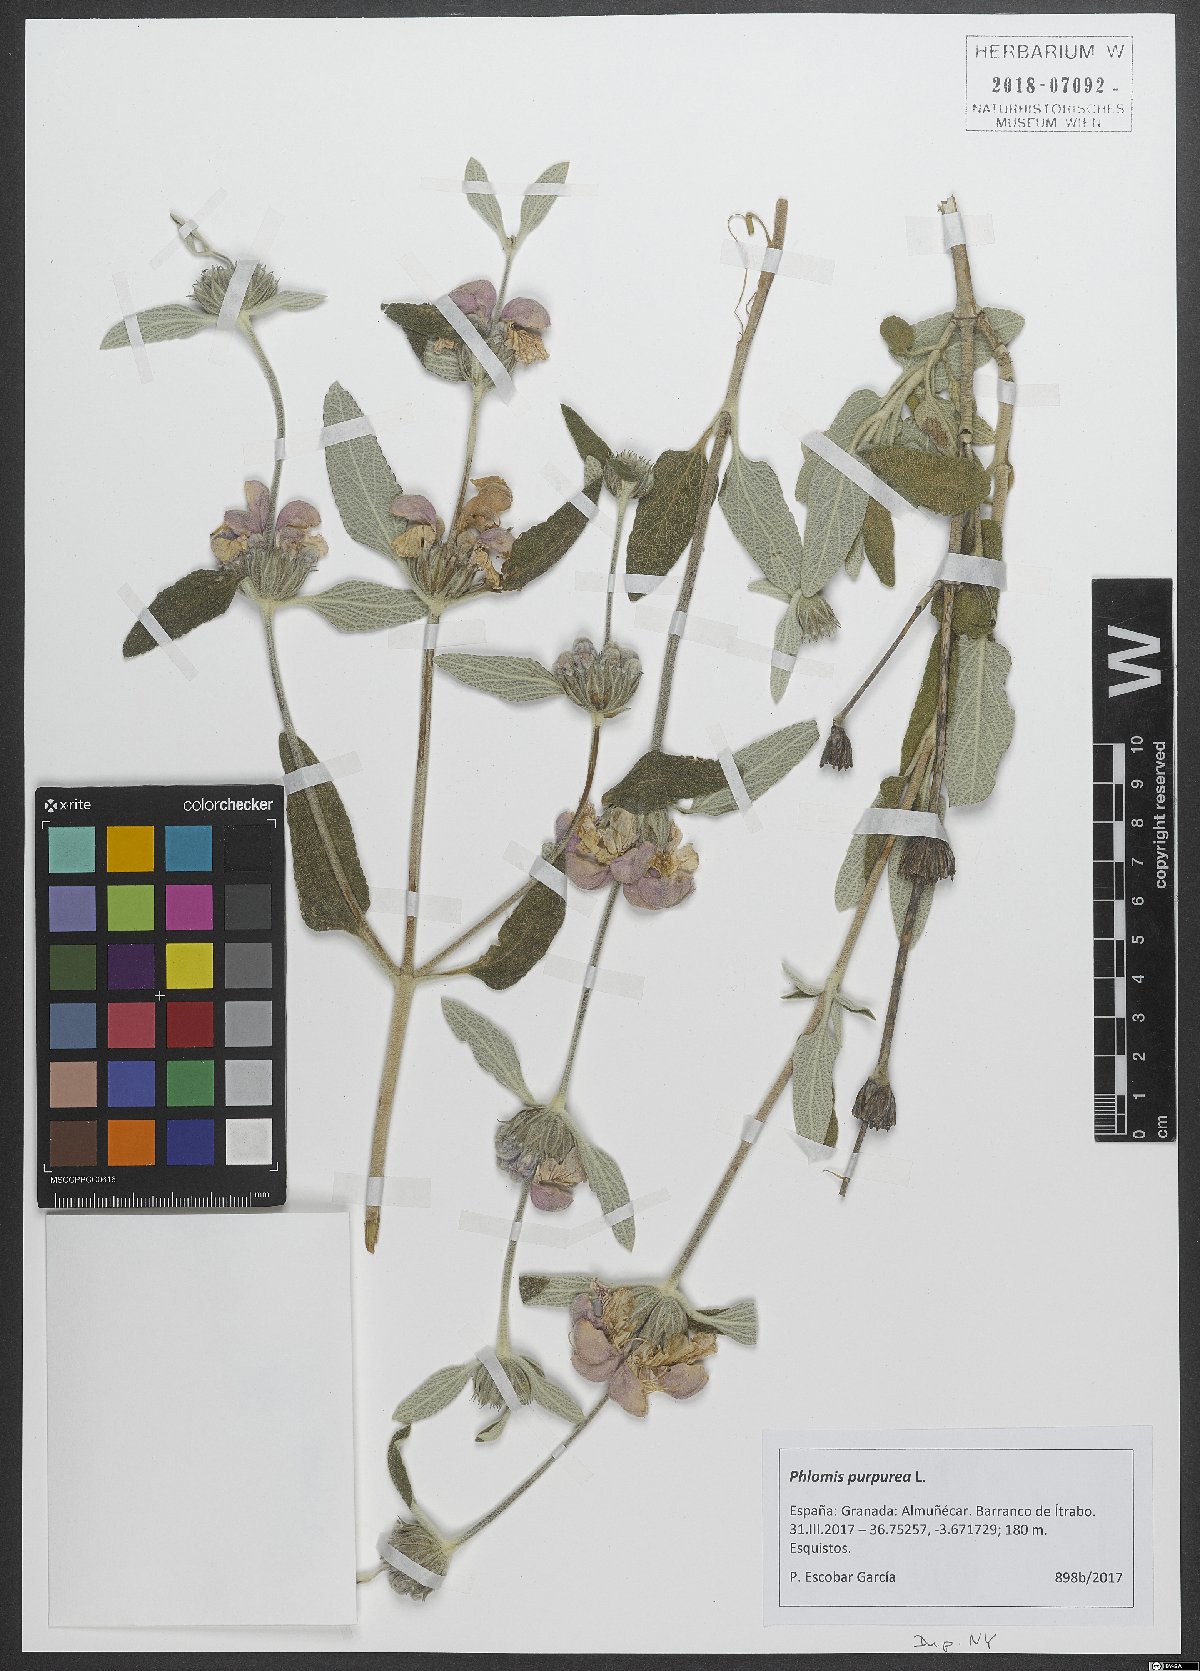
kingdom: Plantae
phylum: Tracheophyta
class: Magnoliopsida
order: Lamiales
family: Lamiaceae
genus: Phlomis
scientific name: Phlomis purpurea
